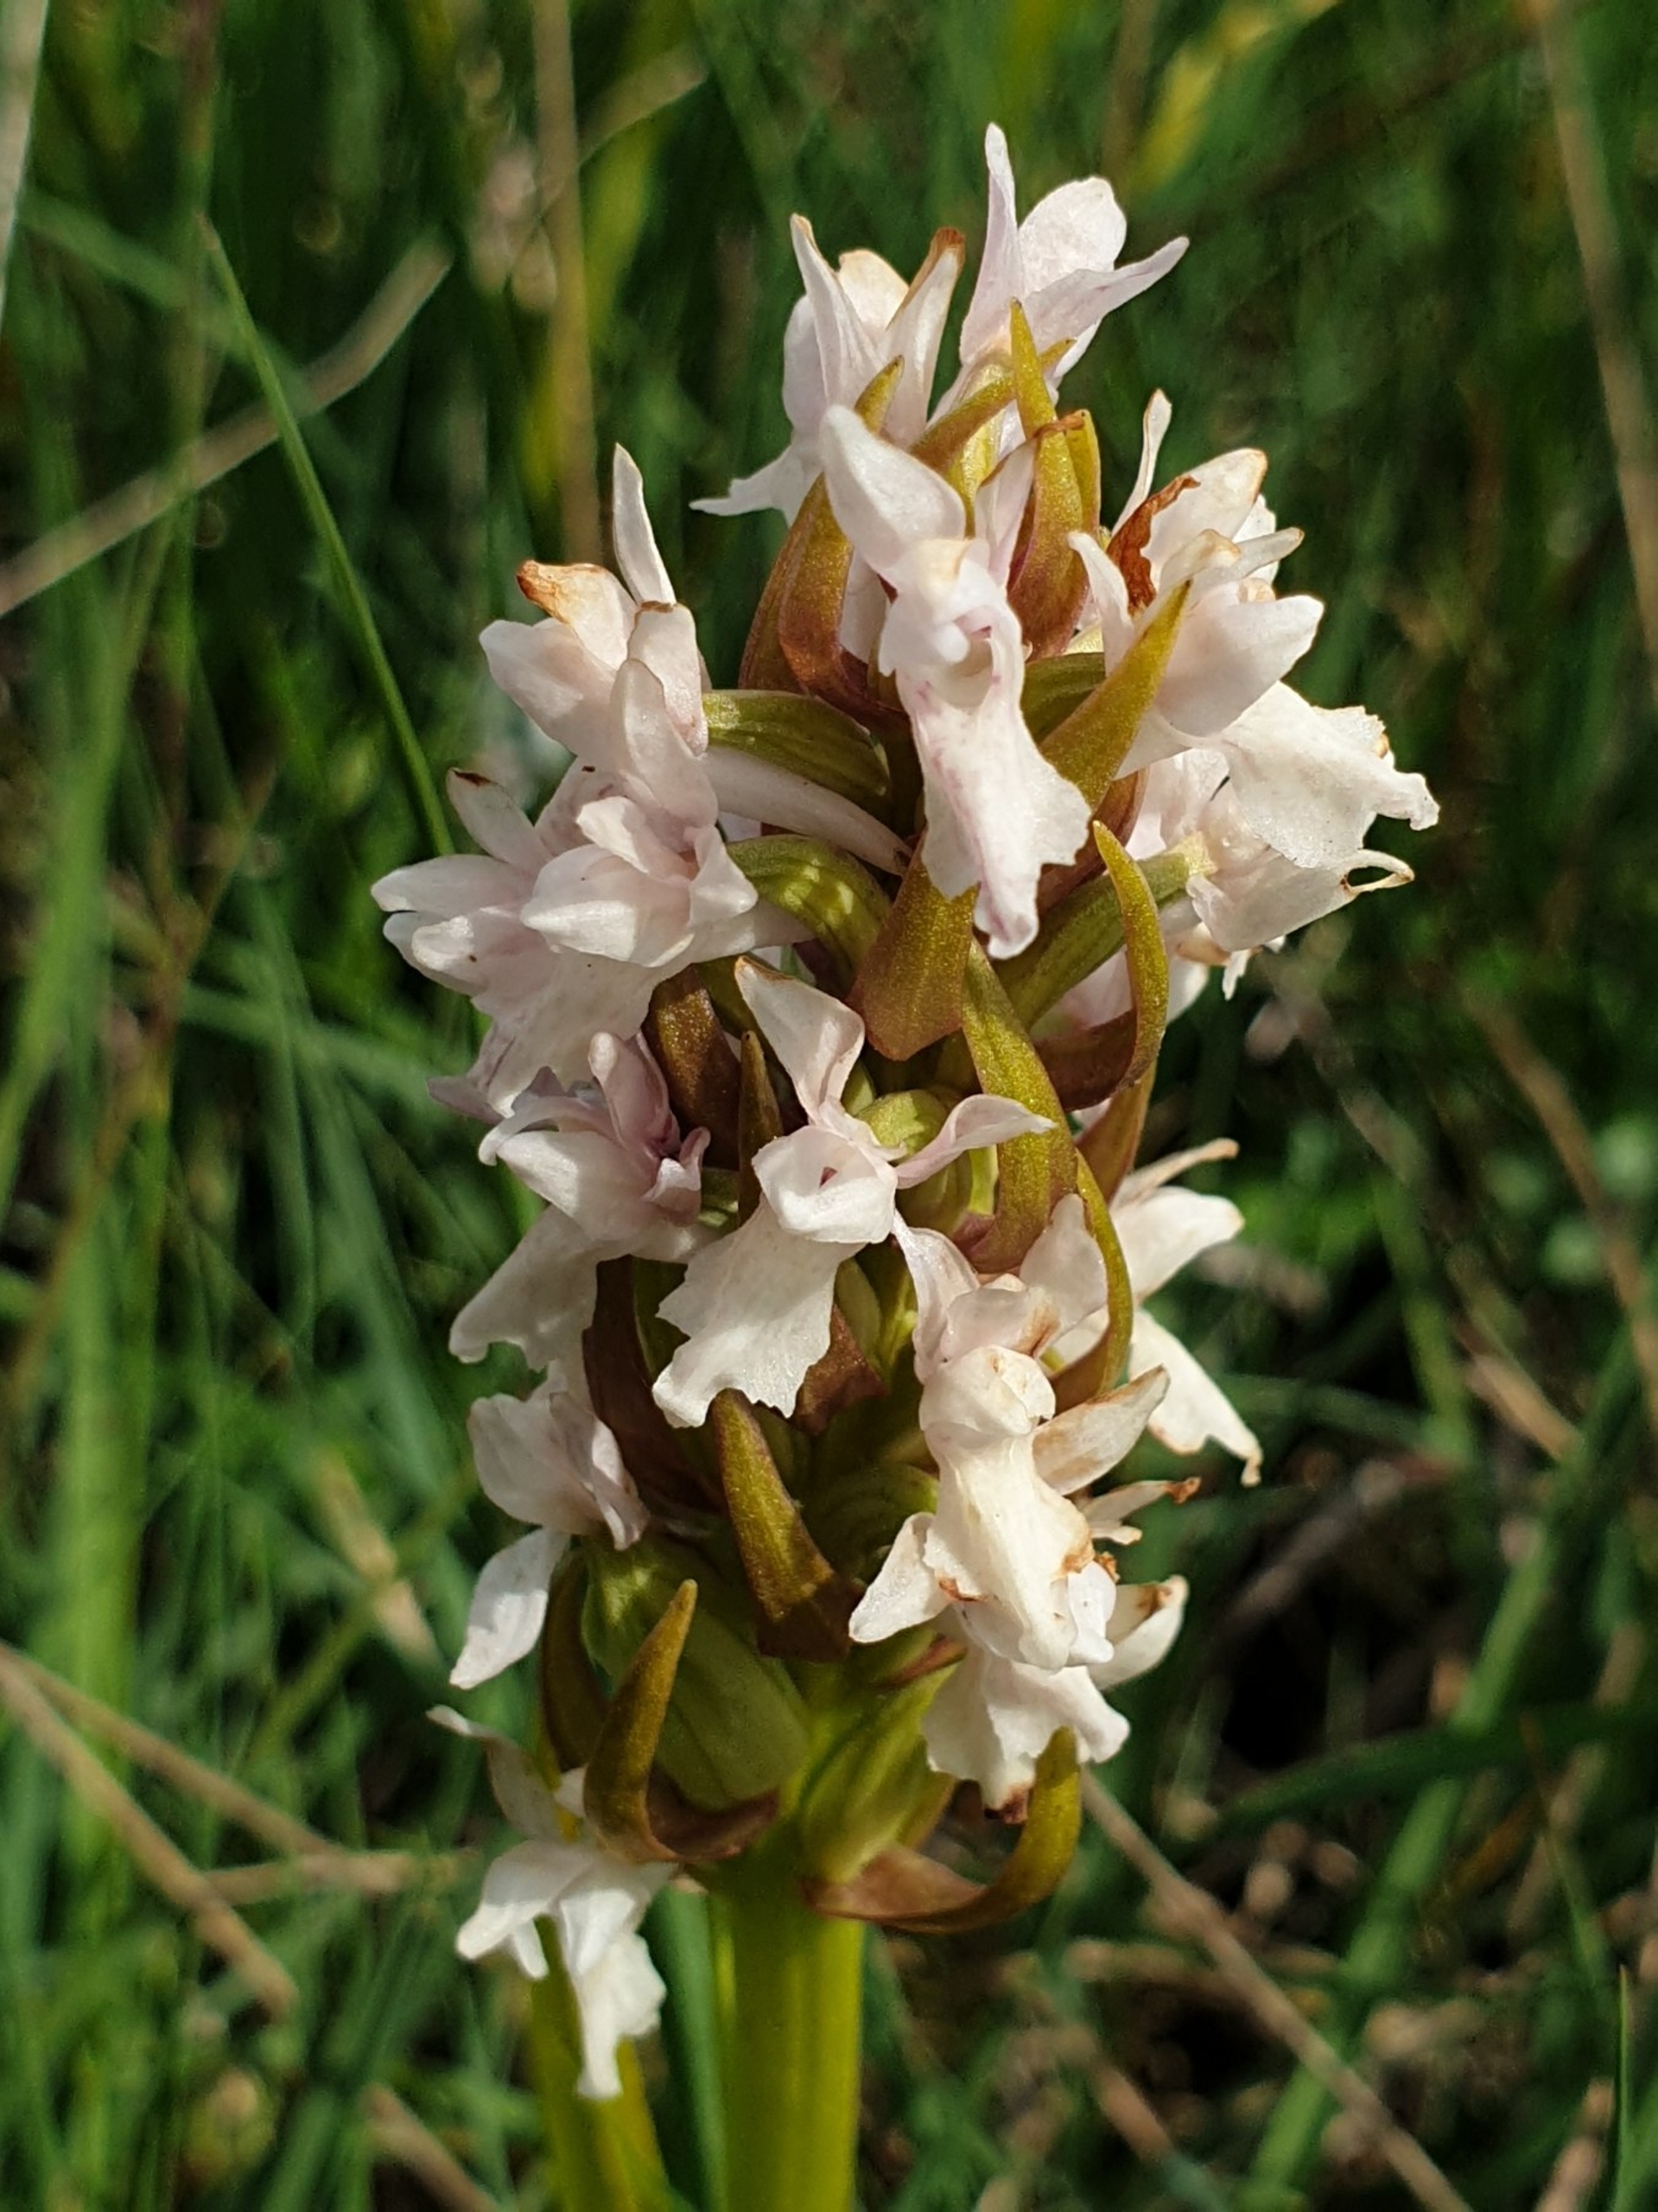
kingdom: Plantae
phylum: Tracheophyta
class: Liliopsida
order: Asparagales
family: Orchidaceae
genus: Dactylorhiza
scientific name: Dactylorhiza incarnata
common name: Kødfarvet gøgeurt
